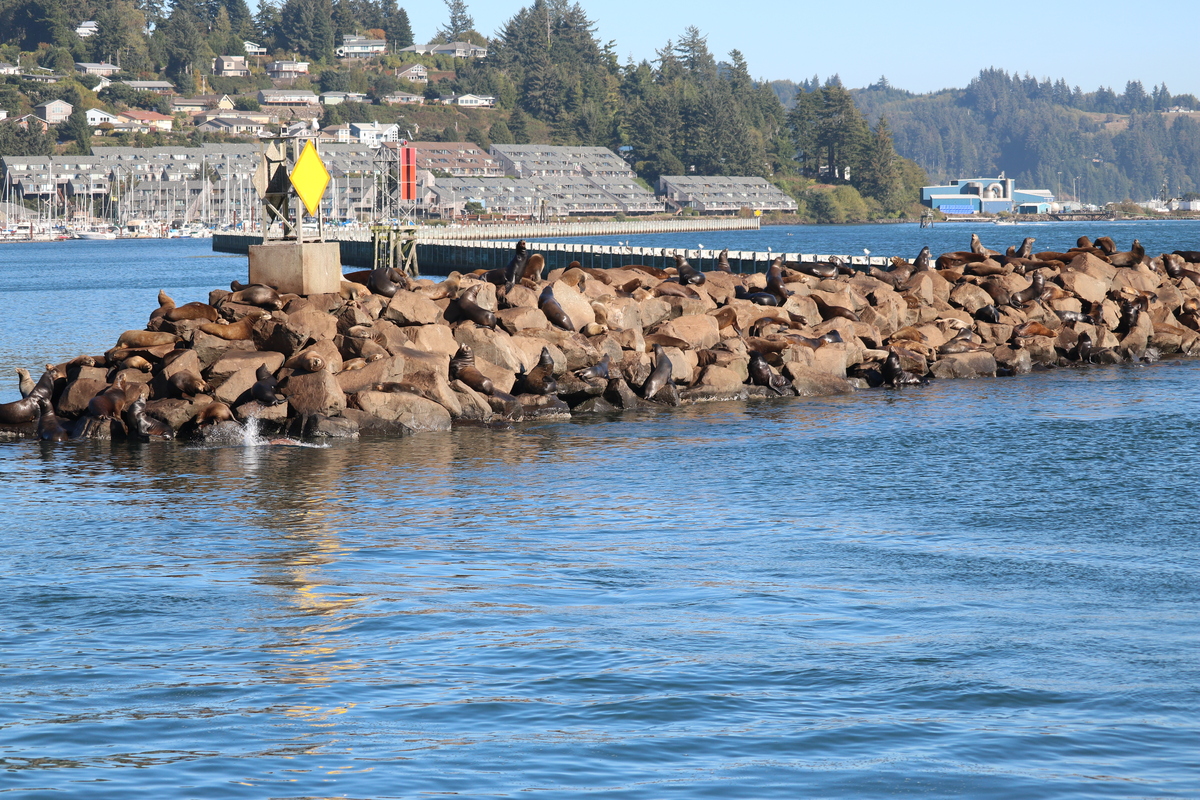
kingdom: Animalia
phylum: Chordata
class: Mammalia
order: Carnivora
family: Otariidae
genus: Zalophus
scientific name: Zalophus californianus
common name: California sea lion
